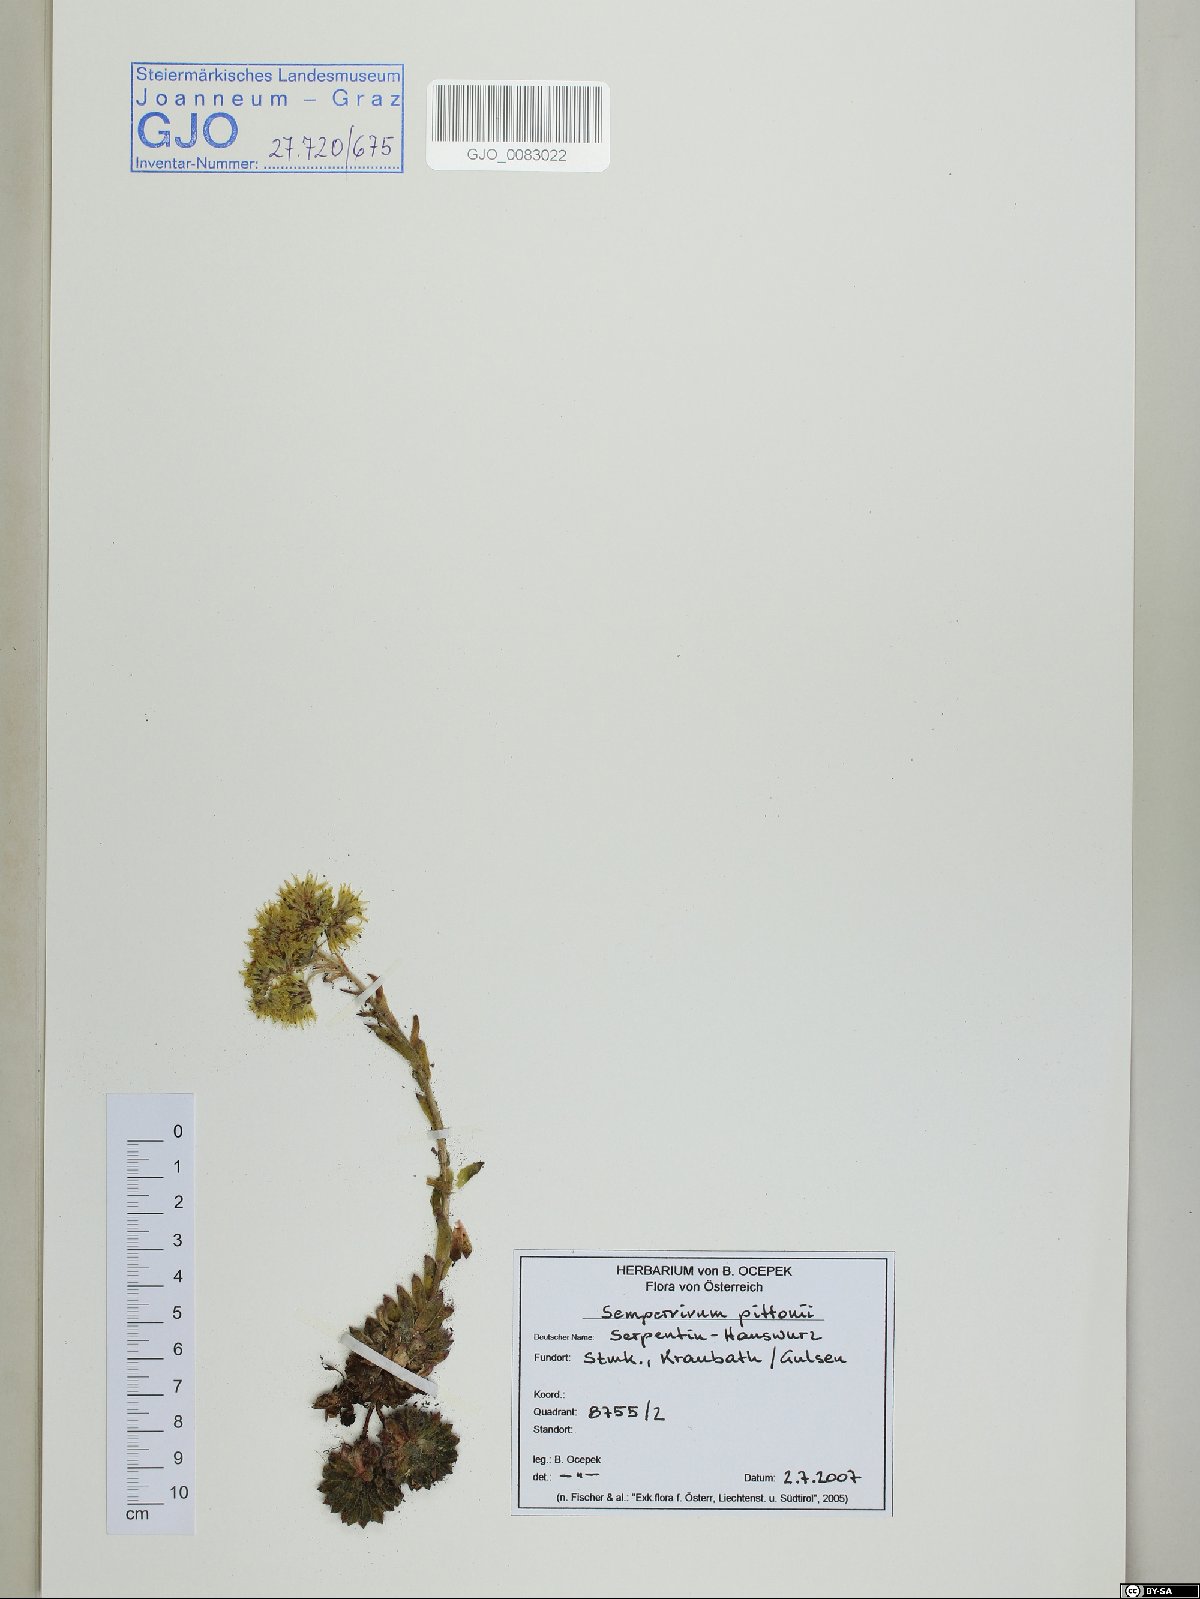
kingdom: Plantae
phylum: Tracheophyta
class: Magnoliopsida
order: Saxifragales
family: Crassulaceae
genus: Sempervivum
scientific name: Sempervivum pittonii
